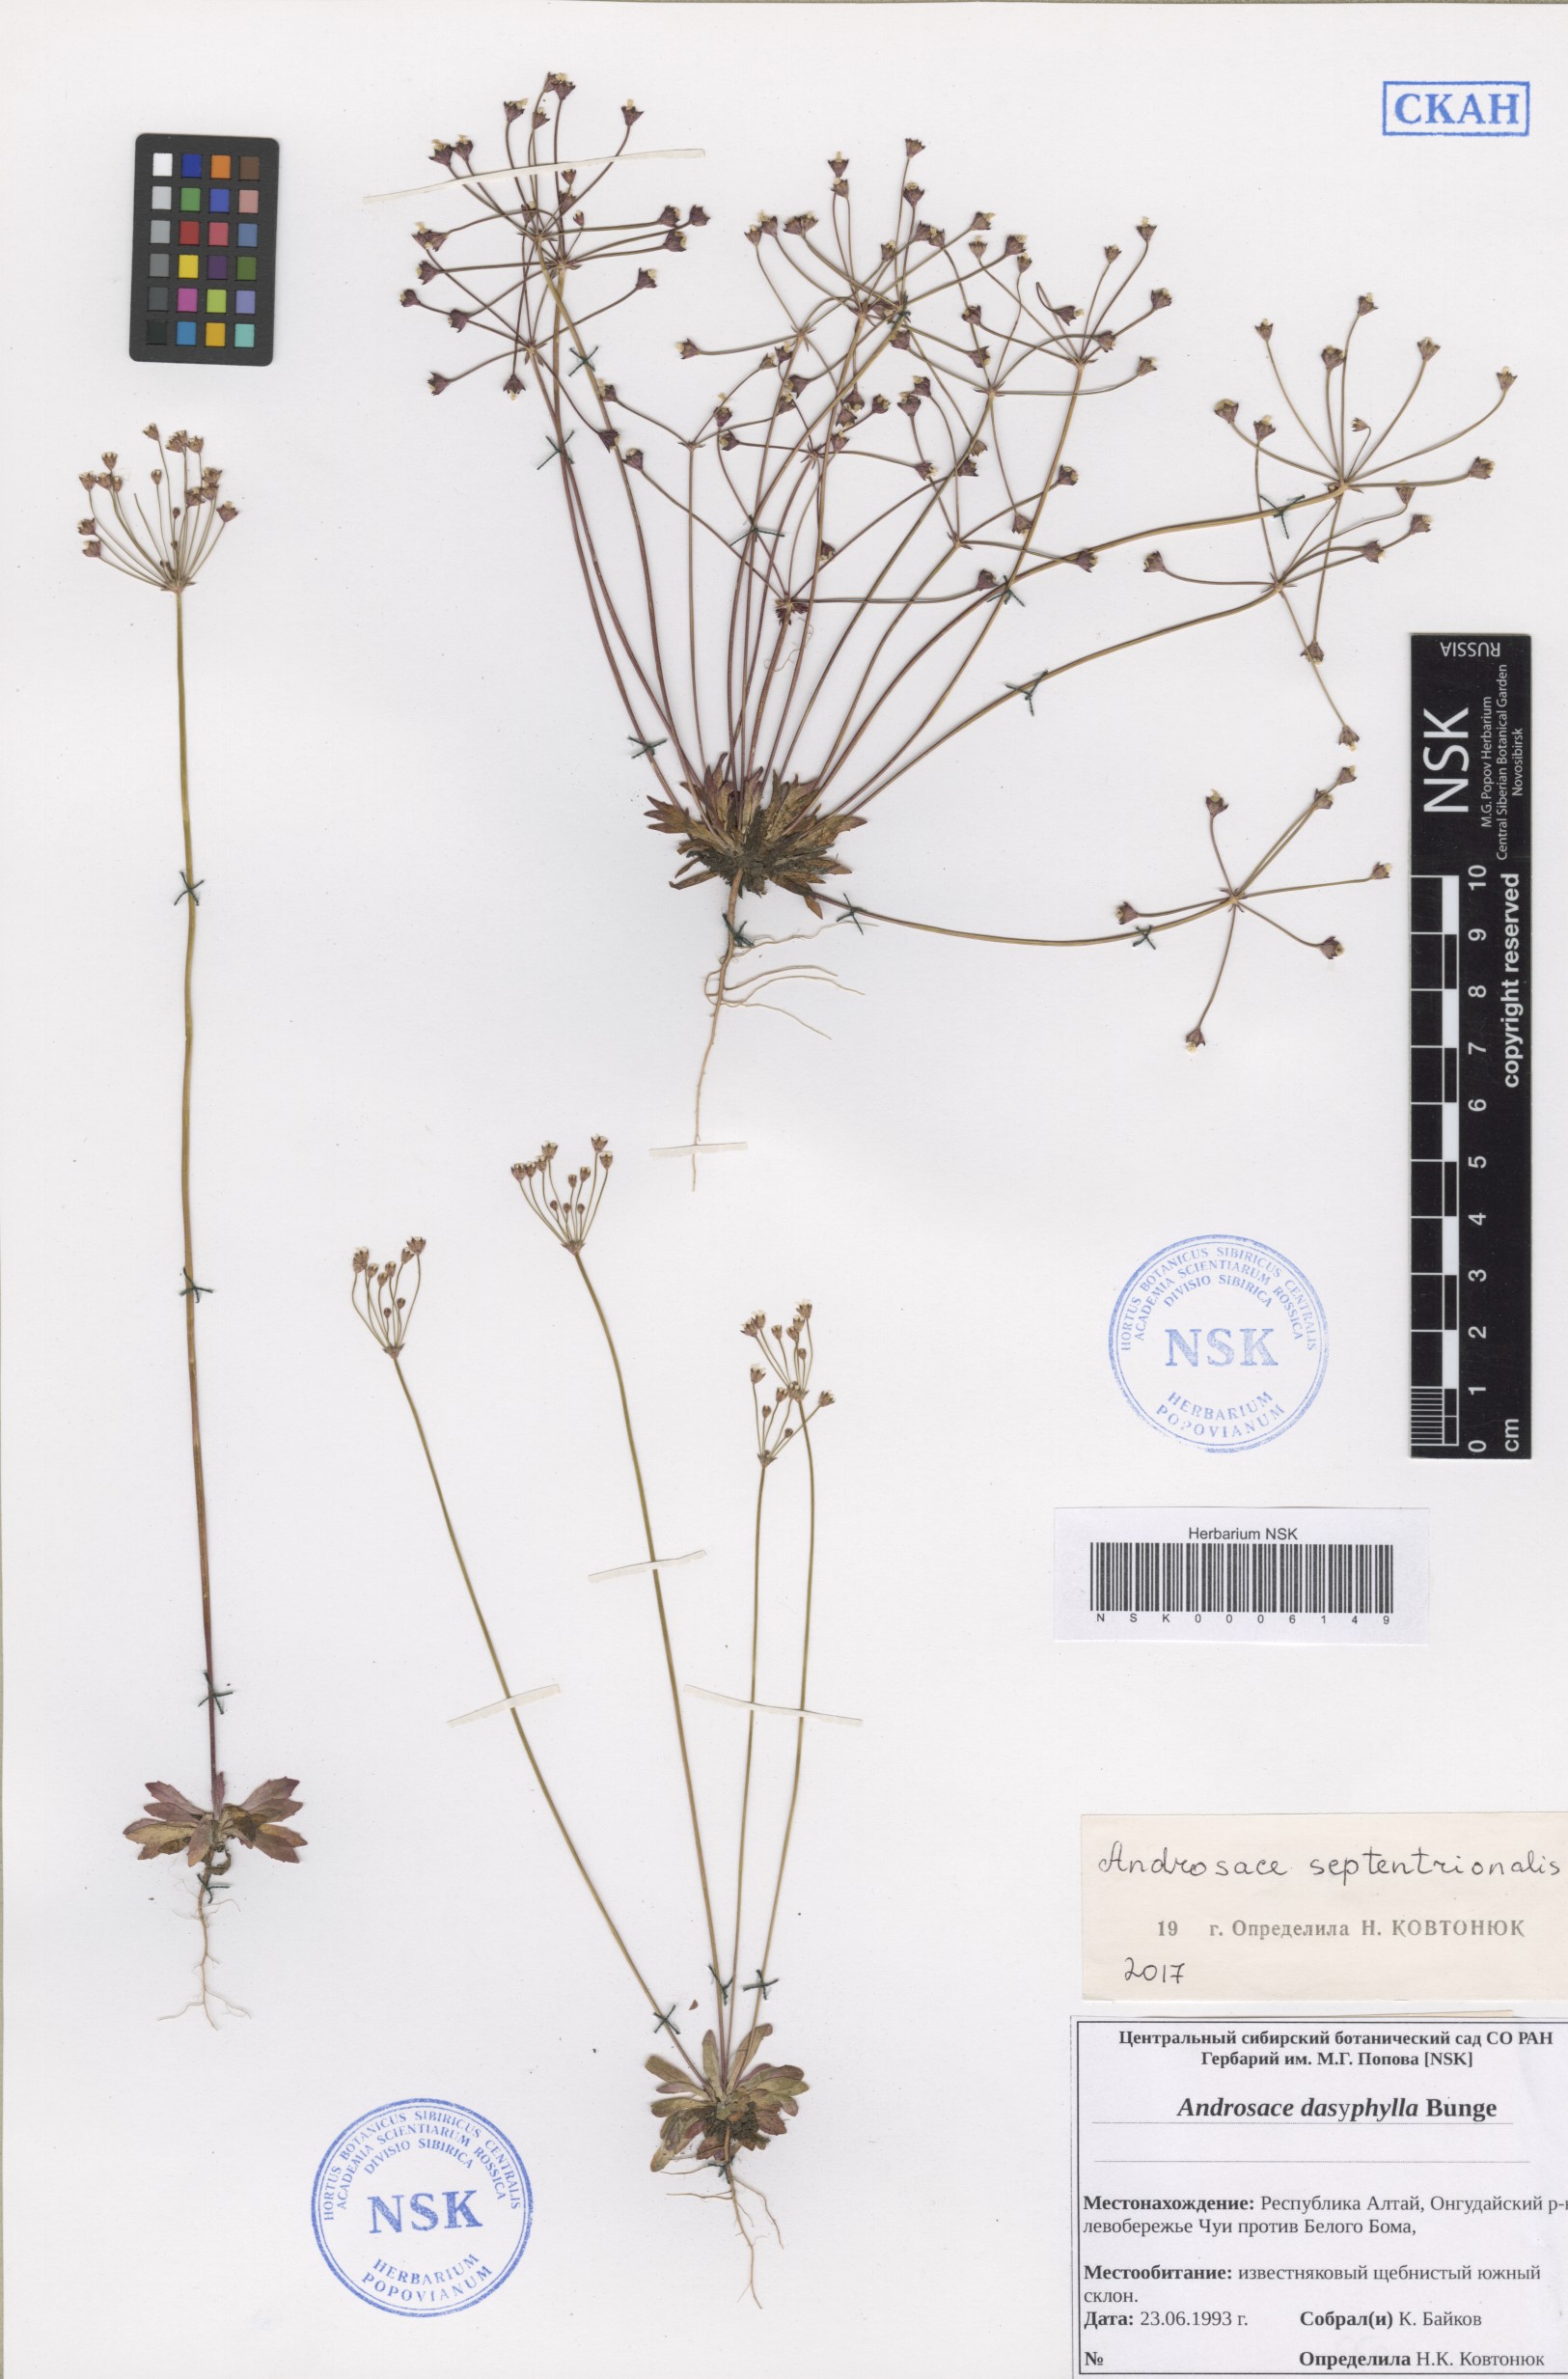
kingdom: Plantae
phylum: Tracheophyta
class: Magnoliopsida
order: Ericales
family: Primulaceae
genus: Androsace
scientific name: Androsace septentrionalis
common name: Hairy northern fairy-candelabra
